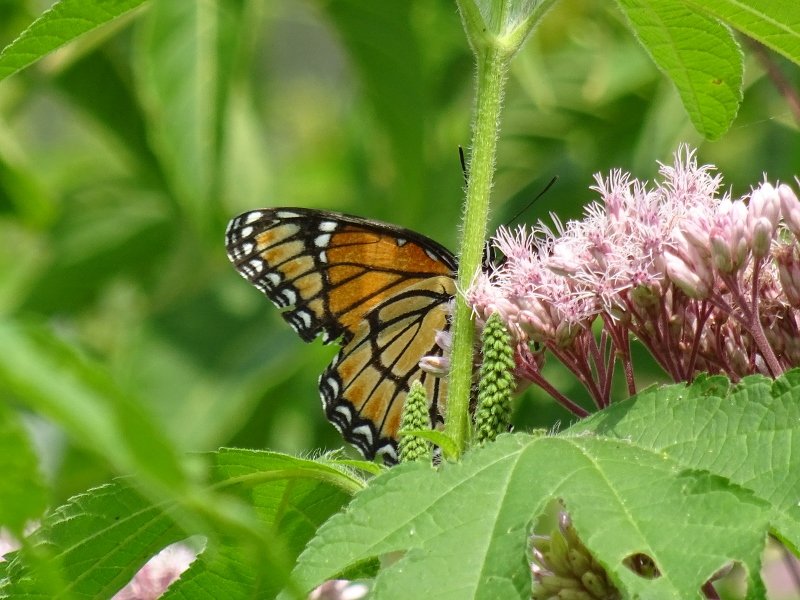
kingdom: Animalia
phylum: Arthropoda
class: Insecta
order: Lepidoptera
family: Nymphalidae
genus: Limenitis
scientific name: Limenitis archippus
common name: Viceroy
